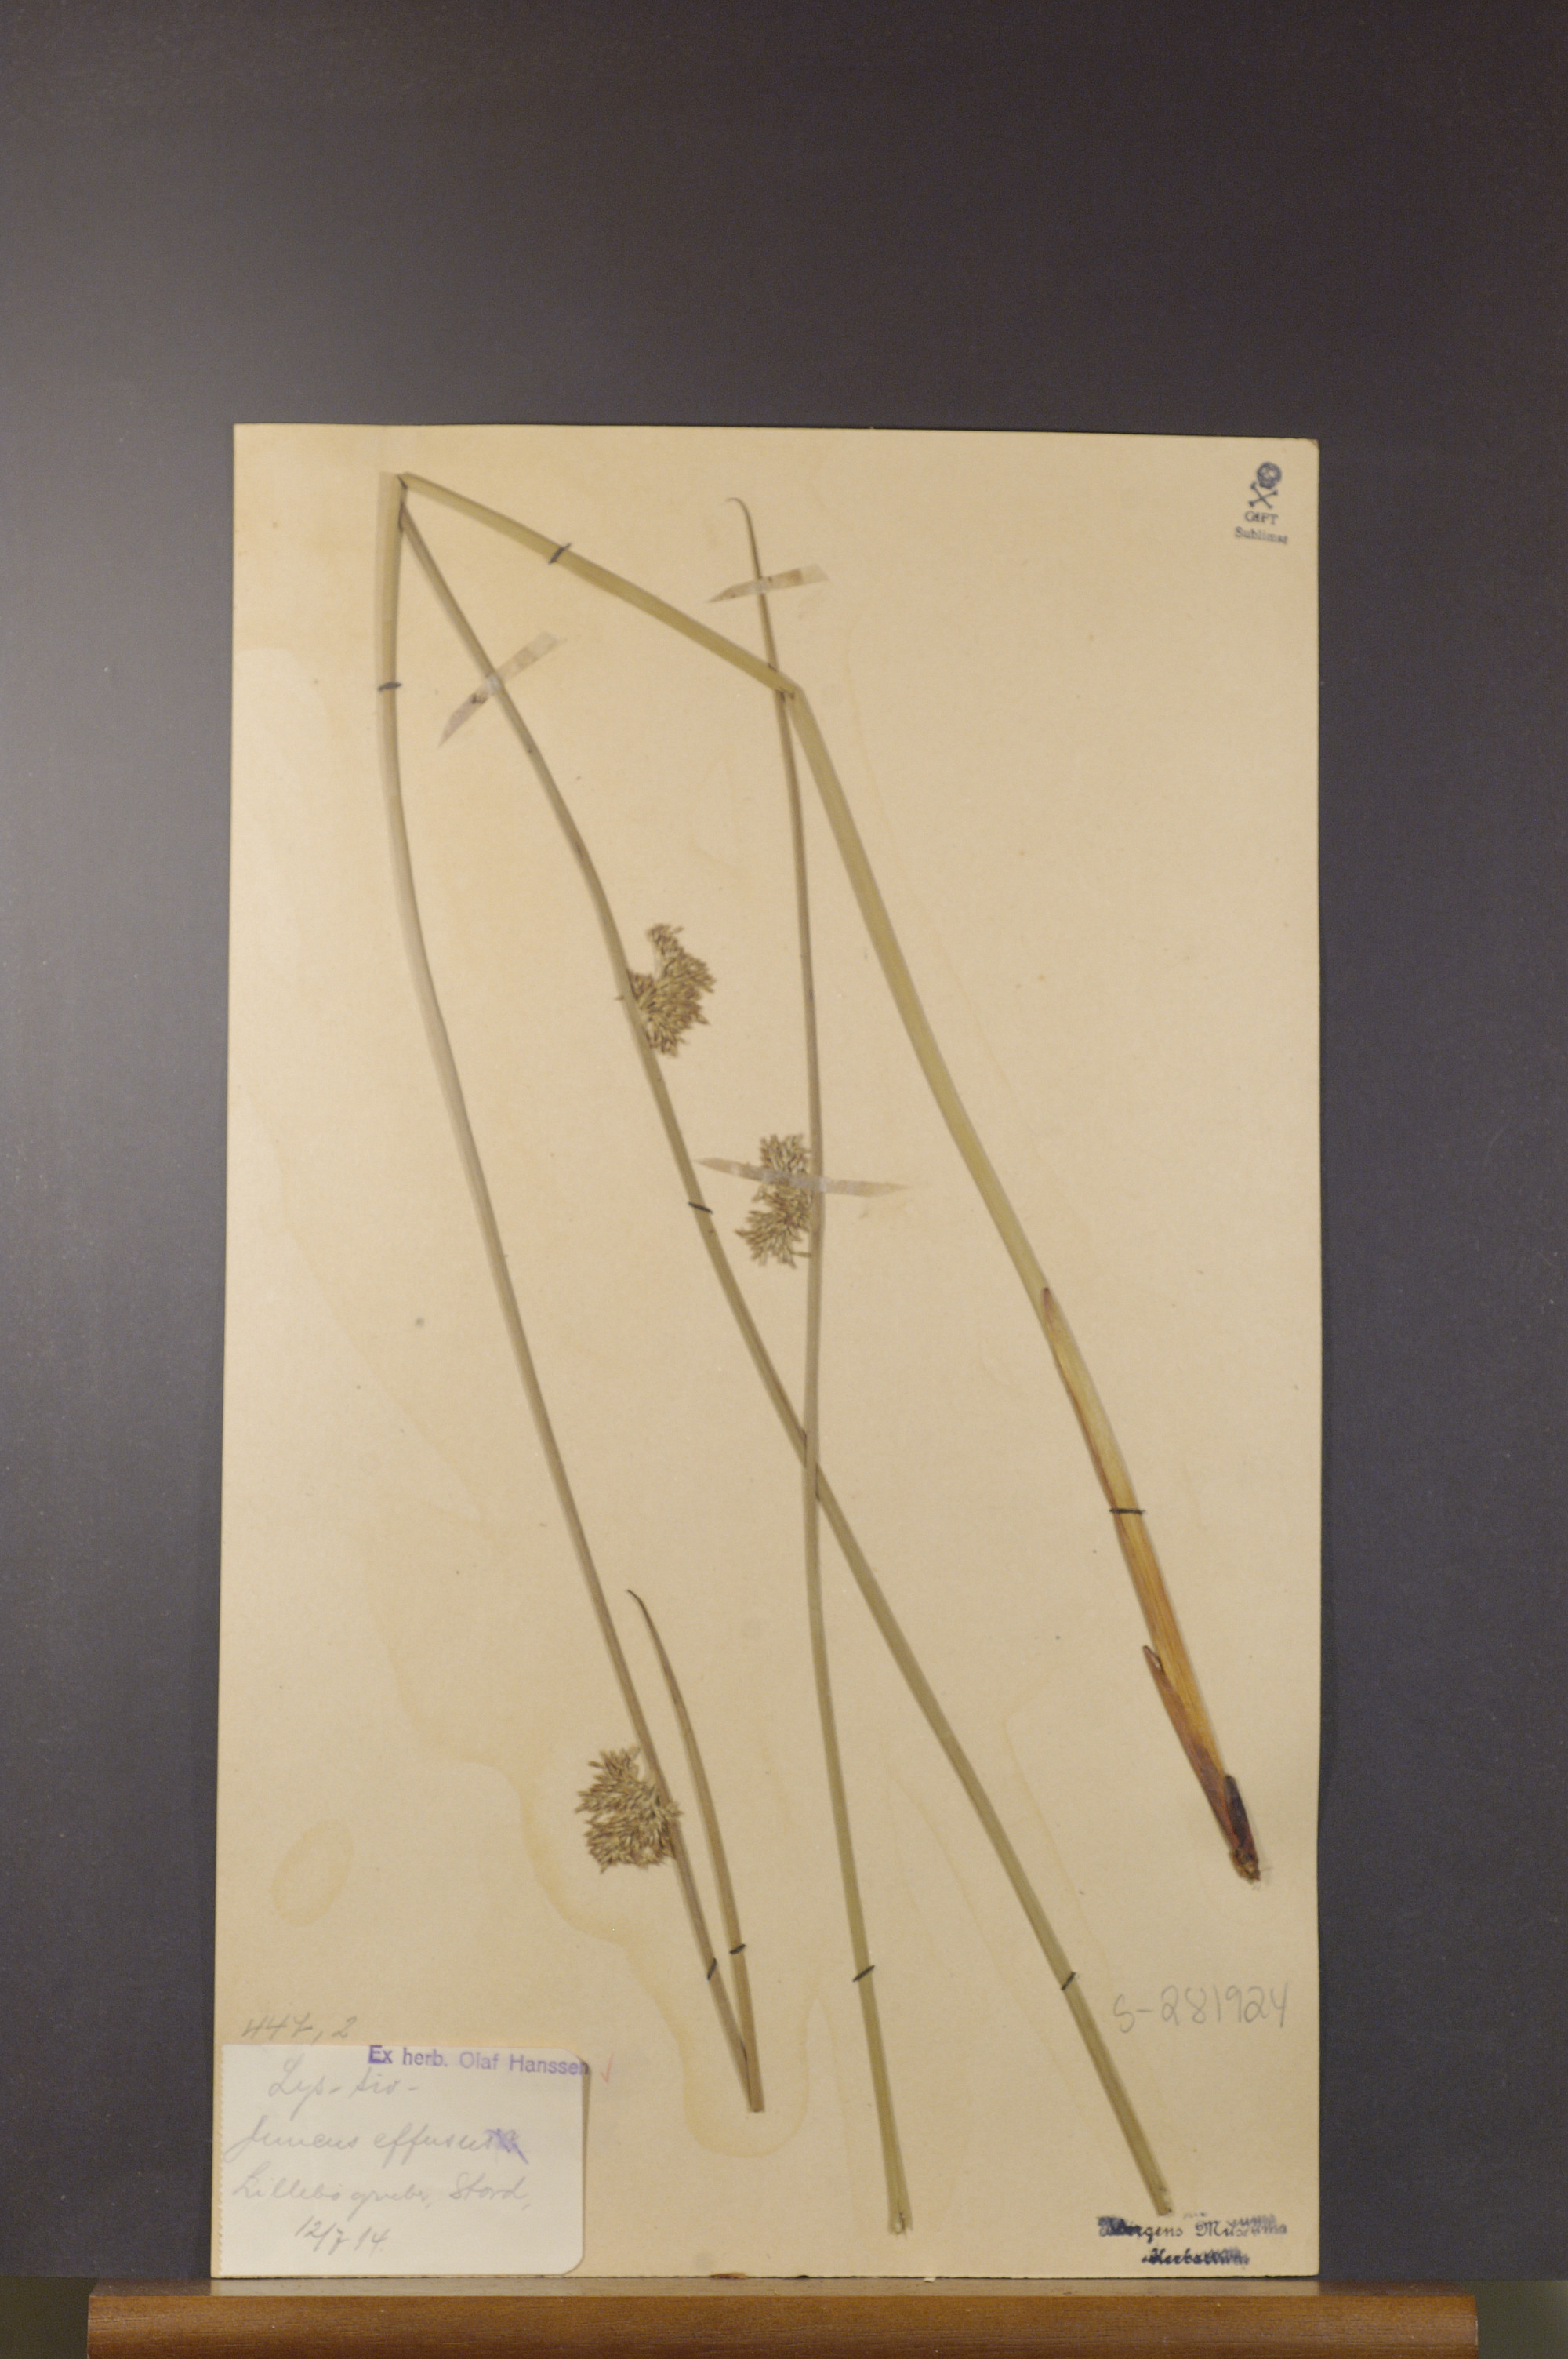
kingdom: Plantae
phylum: Tracheophyta
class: Liliopsida
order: Poales
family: Juncaceae
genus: Juncus
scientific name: Juncus effusus
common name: Soft rush
